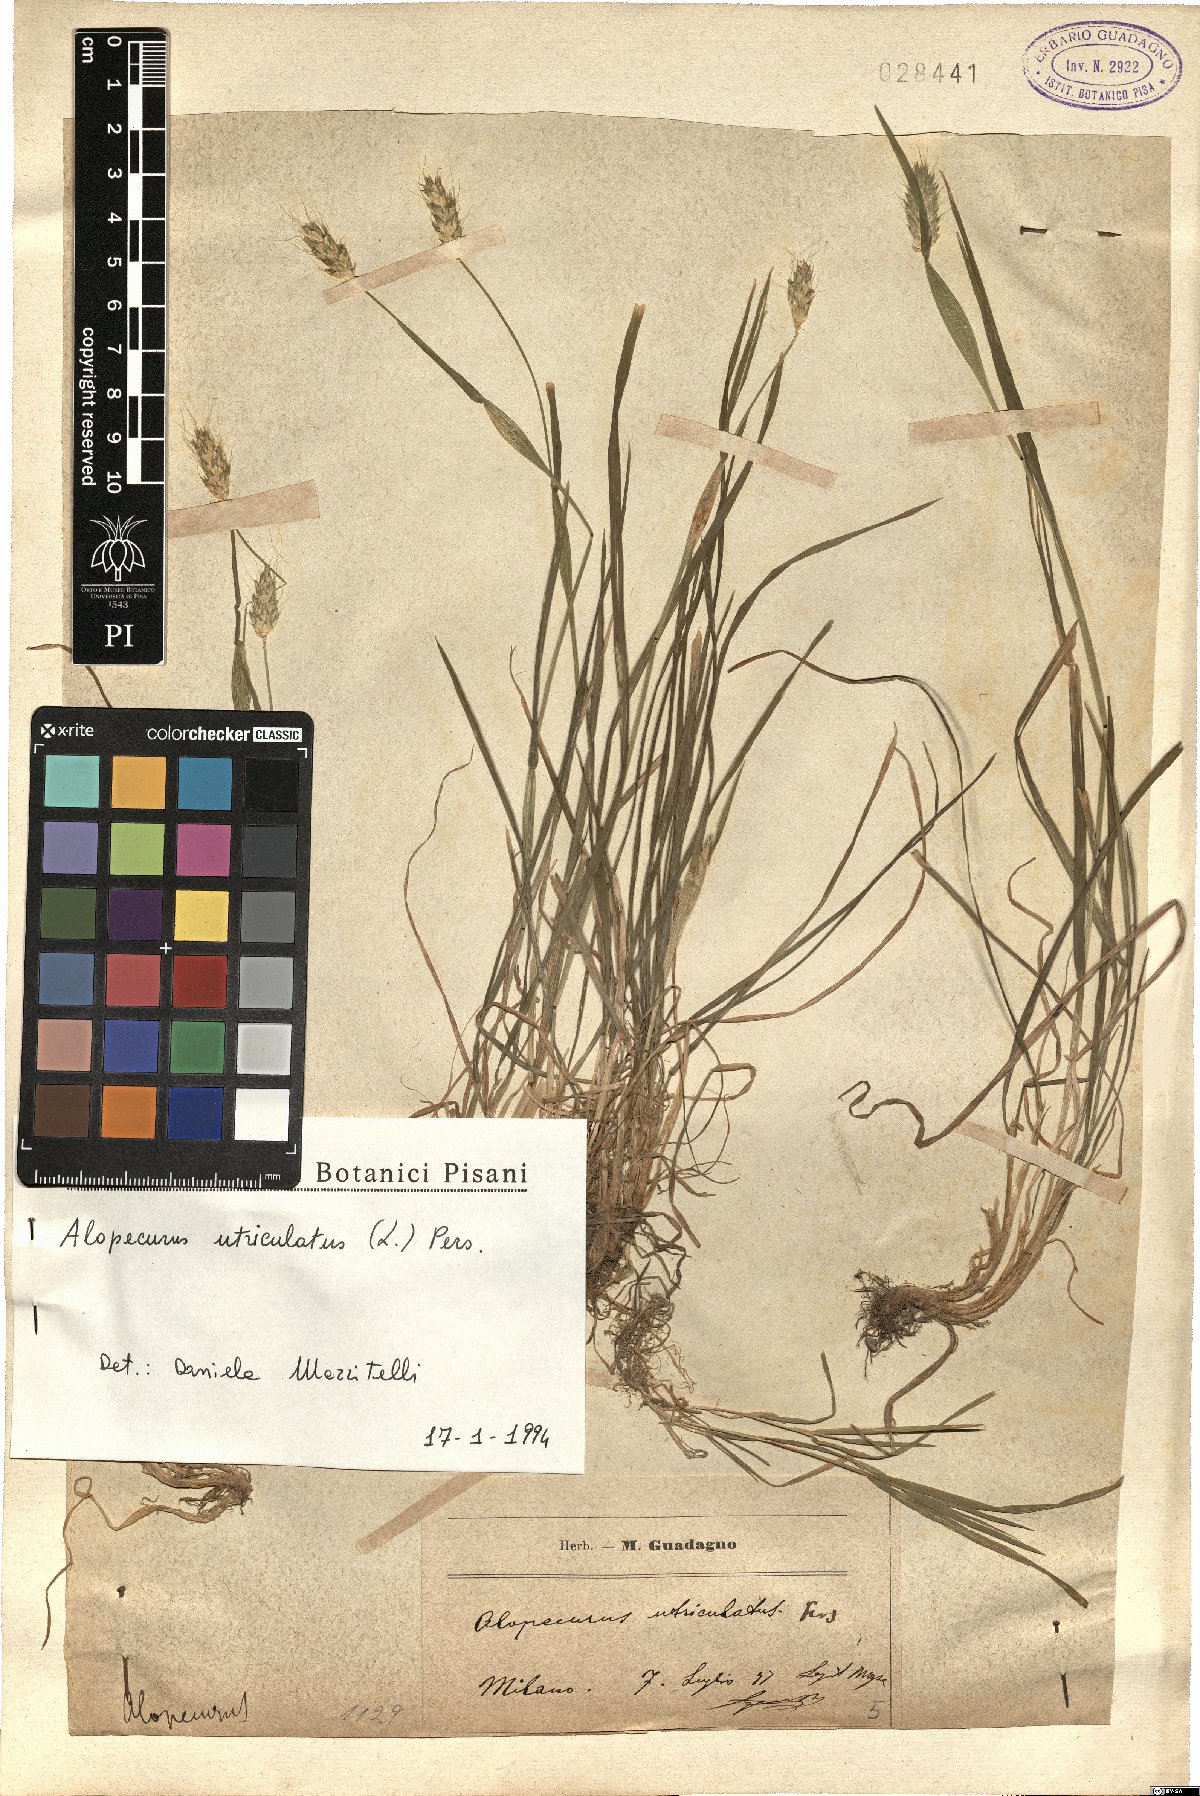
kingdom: Plantae
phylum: Tracheophyta
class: Liliopsida
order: Poales
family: Poaceae
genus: Alopecurus
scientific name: Alopecurus rendlei
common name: Rendle's meadow foxtail
